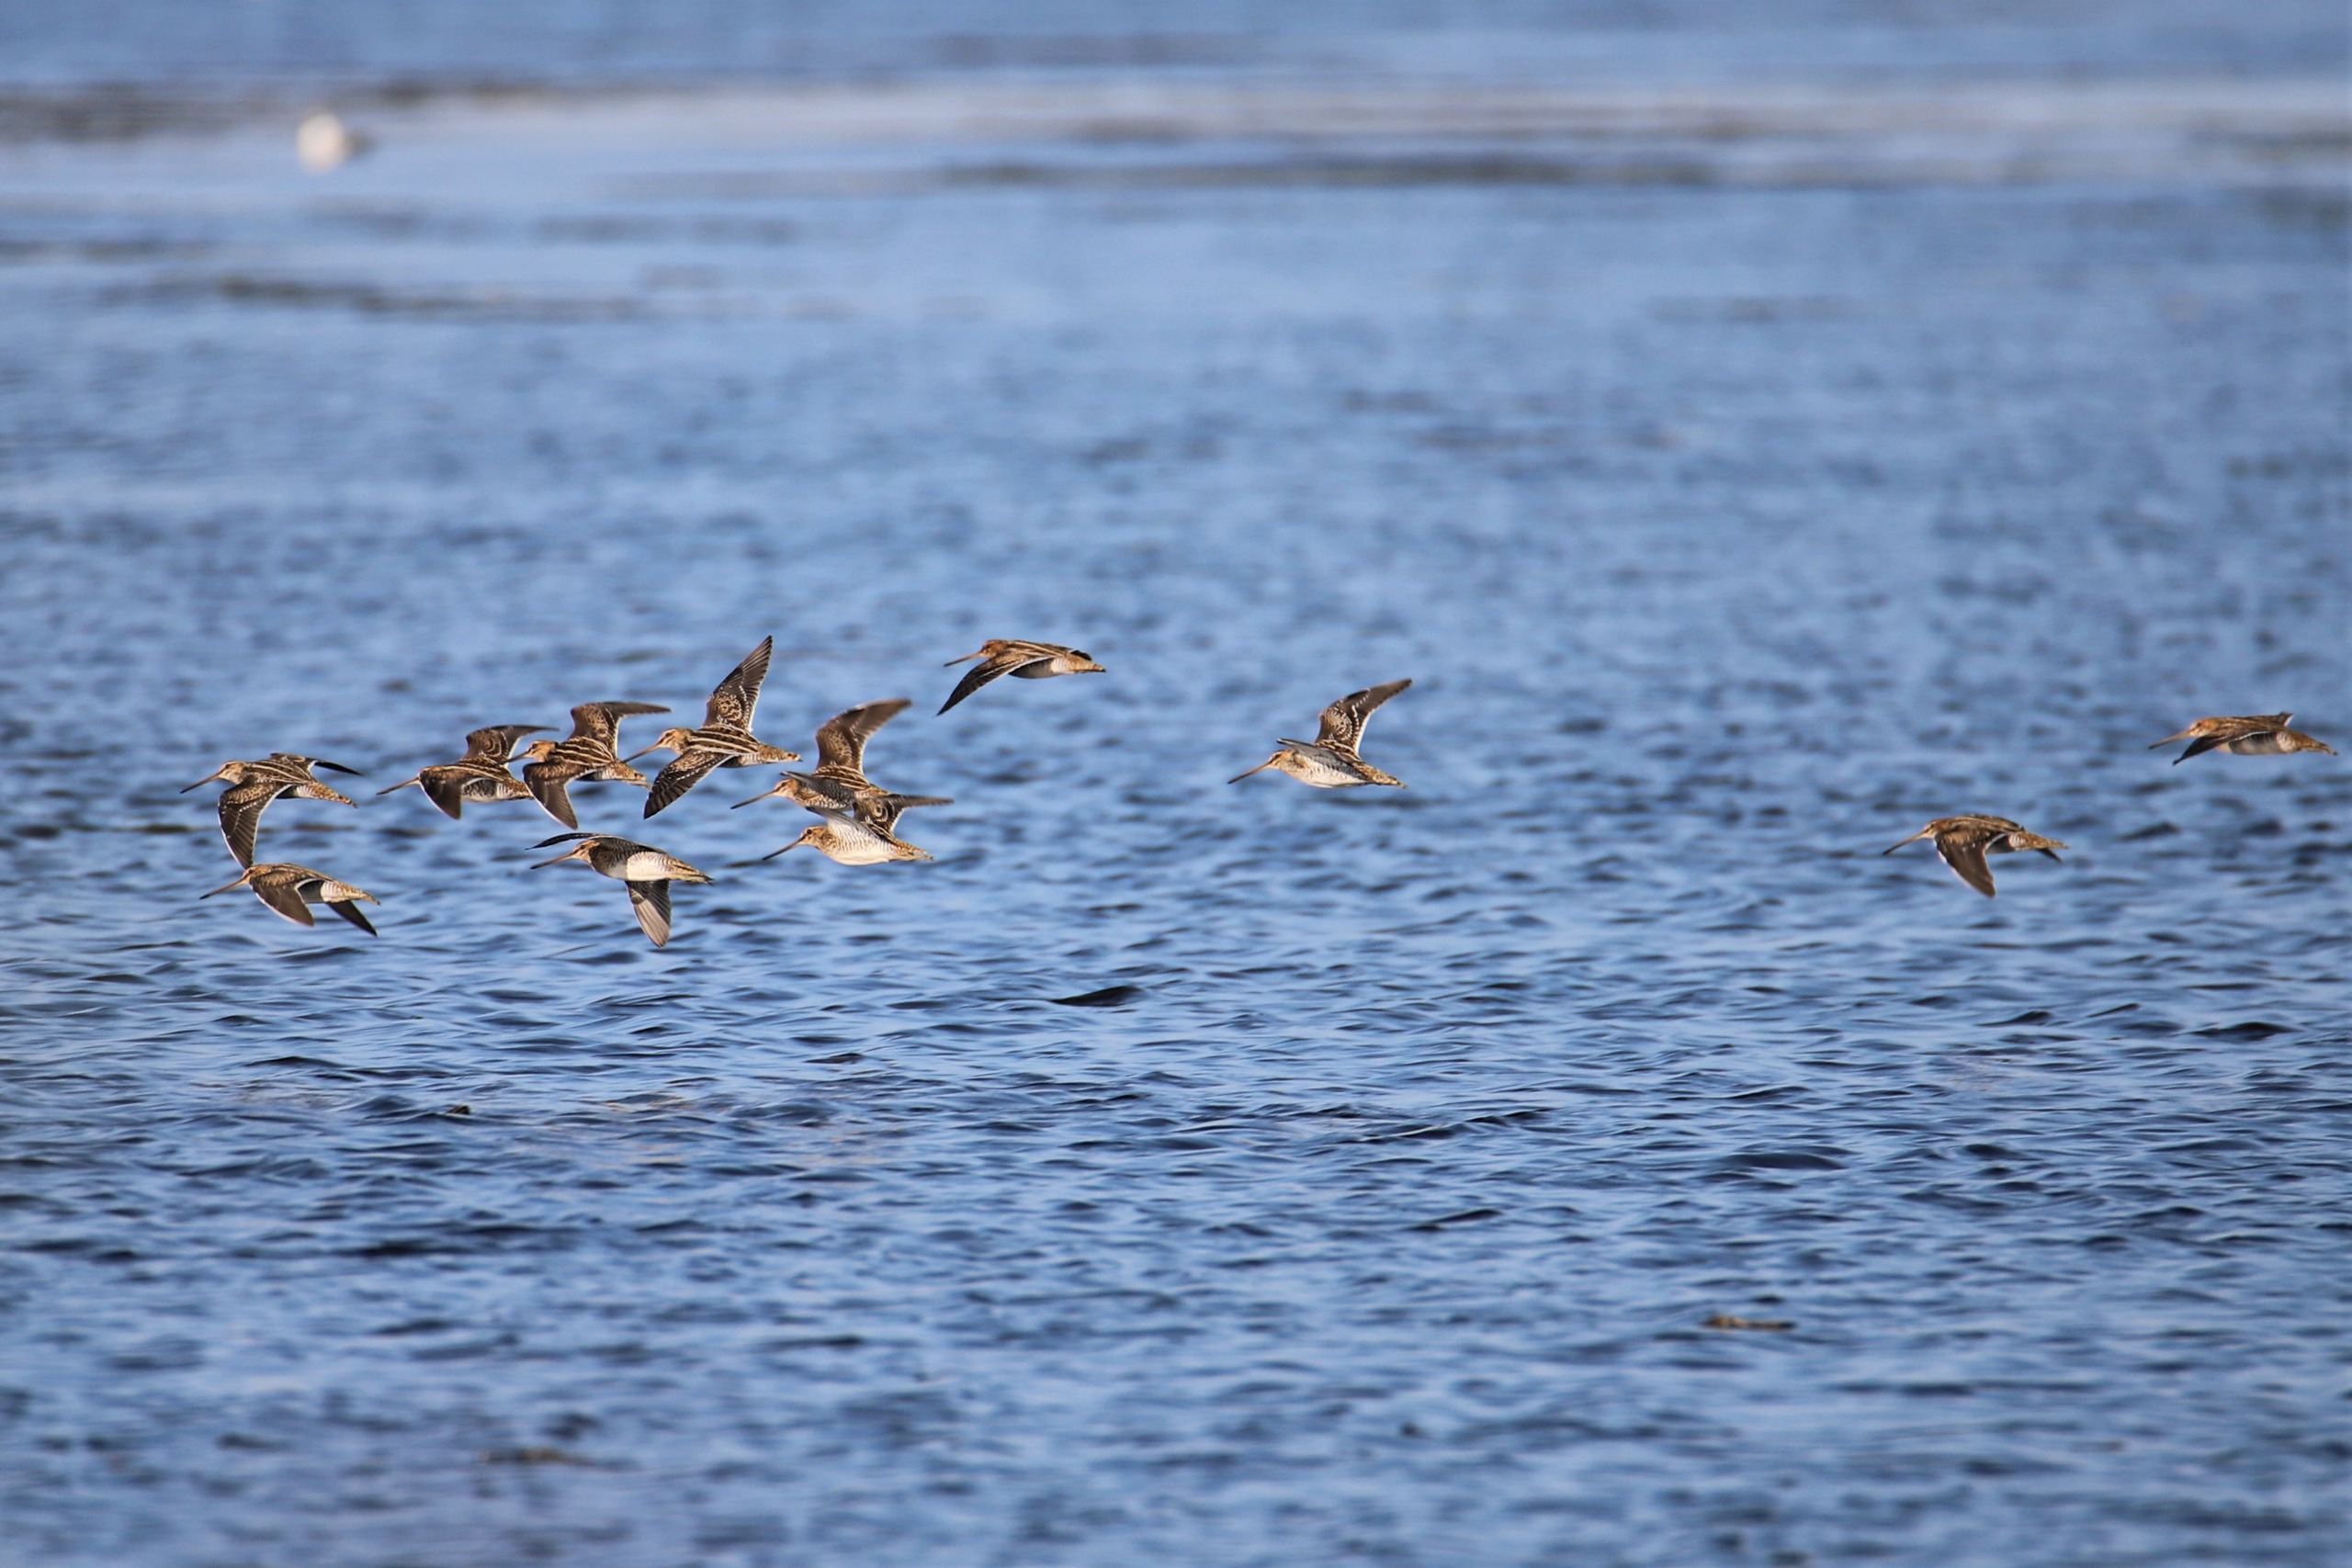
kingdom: Animalia
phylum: Chordata
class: Aves
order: Charadriiformes
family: Scolopacidae
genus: Gallinago
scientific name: Gallinago gallinago
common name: Dobbeltbekkasin
